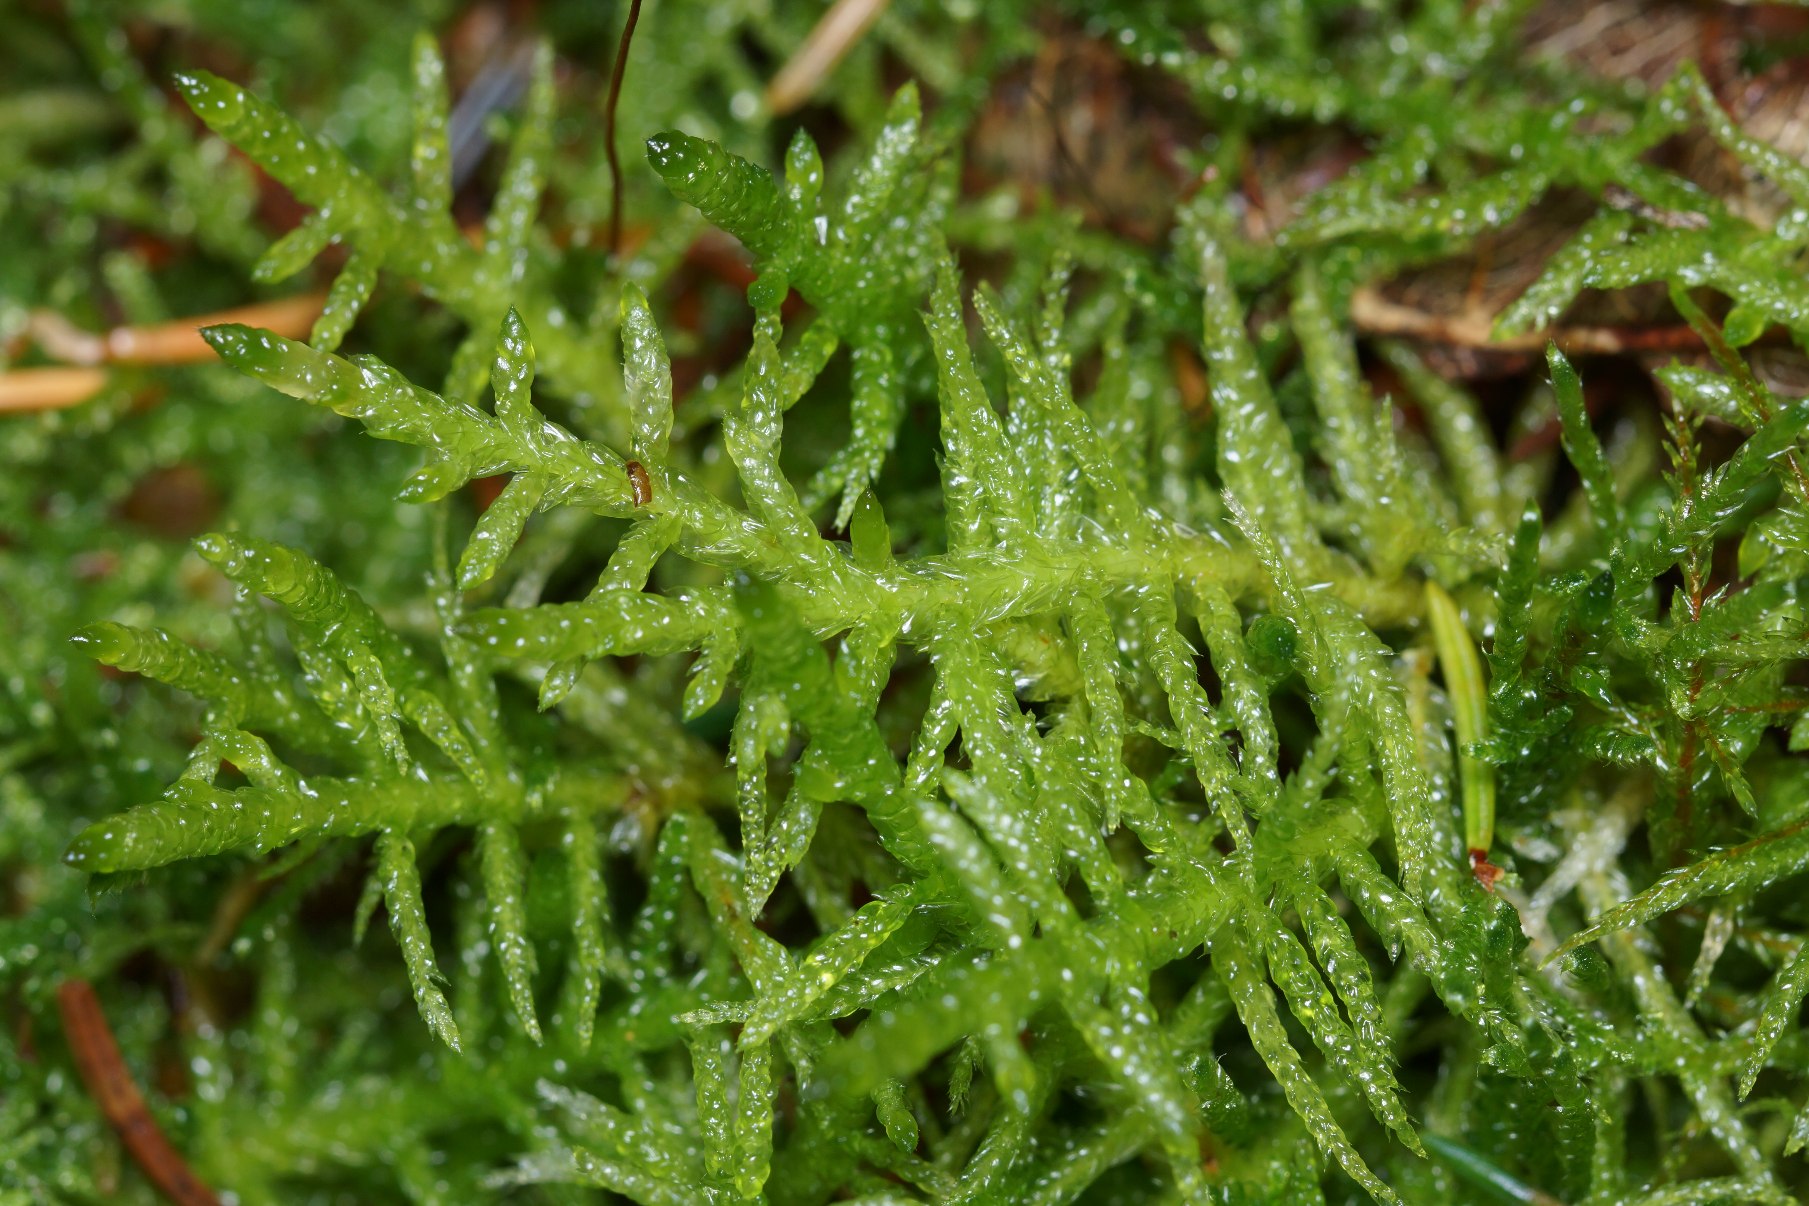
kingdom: Plantae
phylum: Bryophyta
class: Bryopsida
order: Hypnales
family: Brachytheciaceae
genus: Pseudoscleropodium
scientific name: Pseudoscleropodium purum
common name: Hulbladet fedtmos
